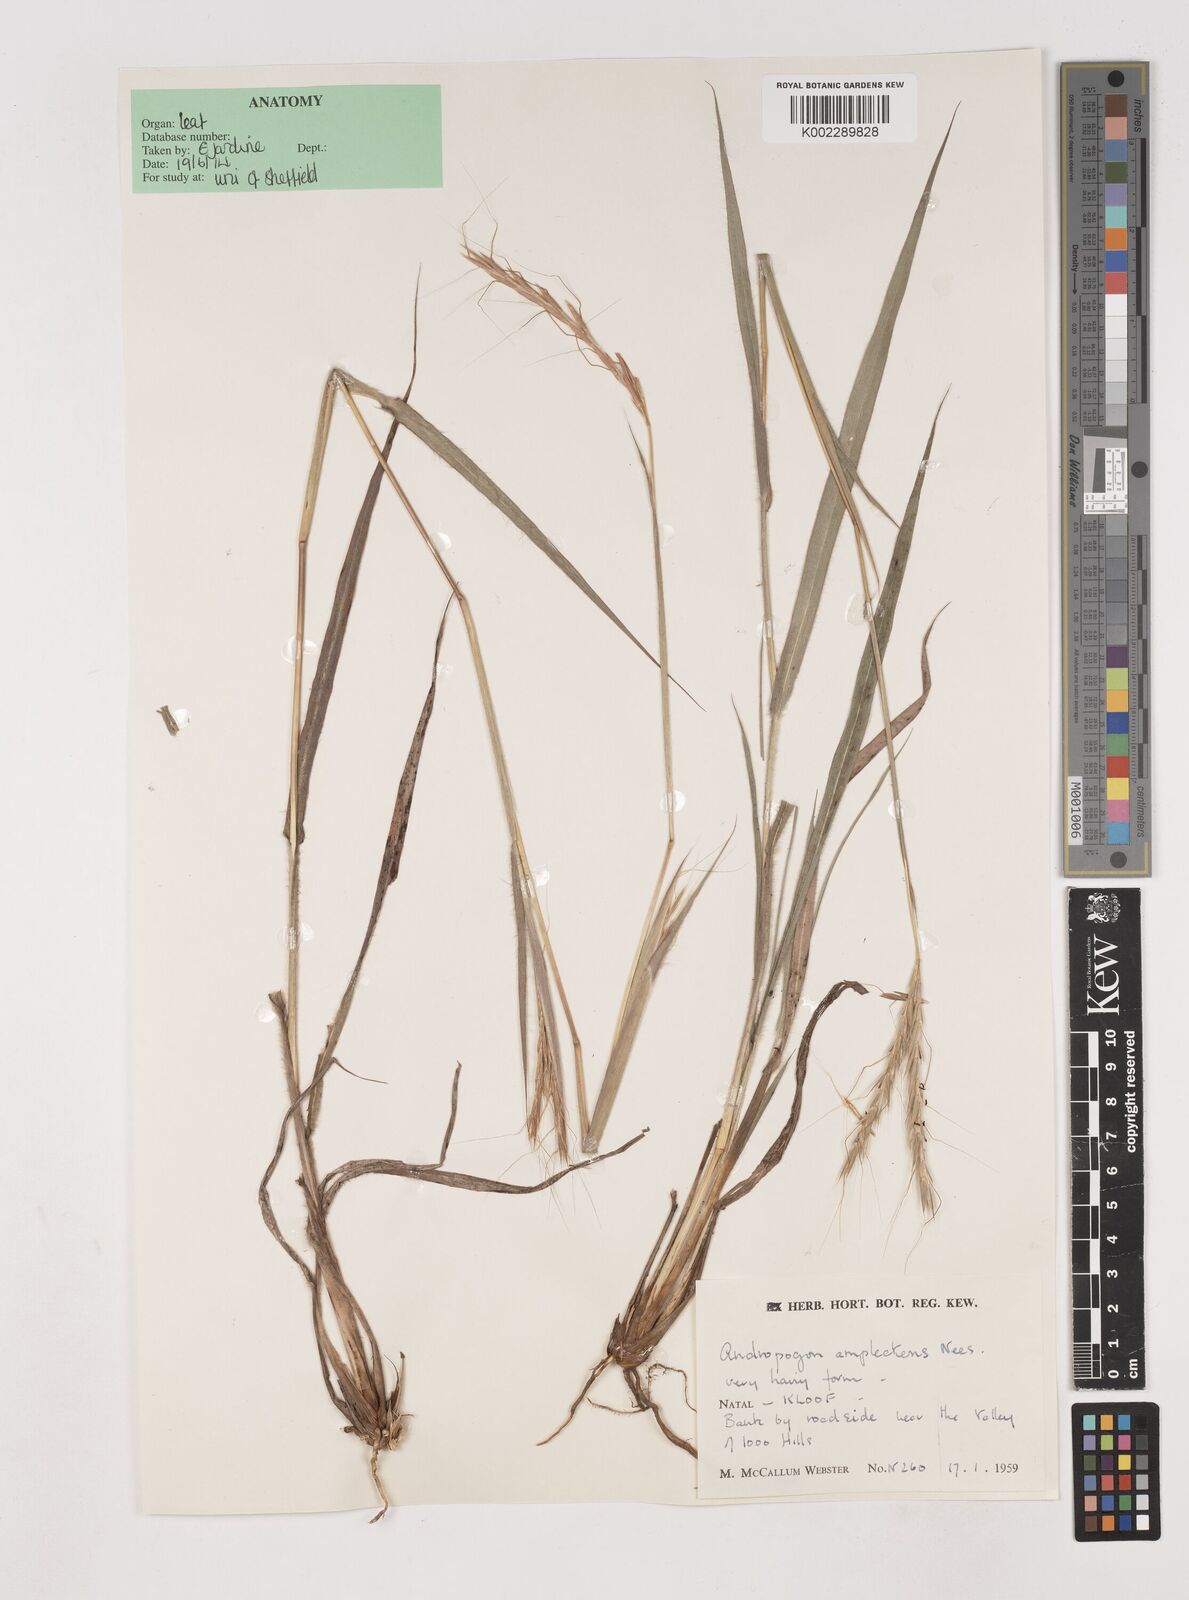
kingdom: Plantae
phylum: Tracheophyta
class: Liliopsida
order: Poales
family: Poaceae
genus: Diheteropogon
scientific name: Diheteropogon amplectens
